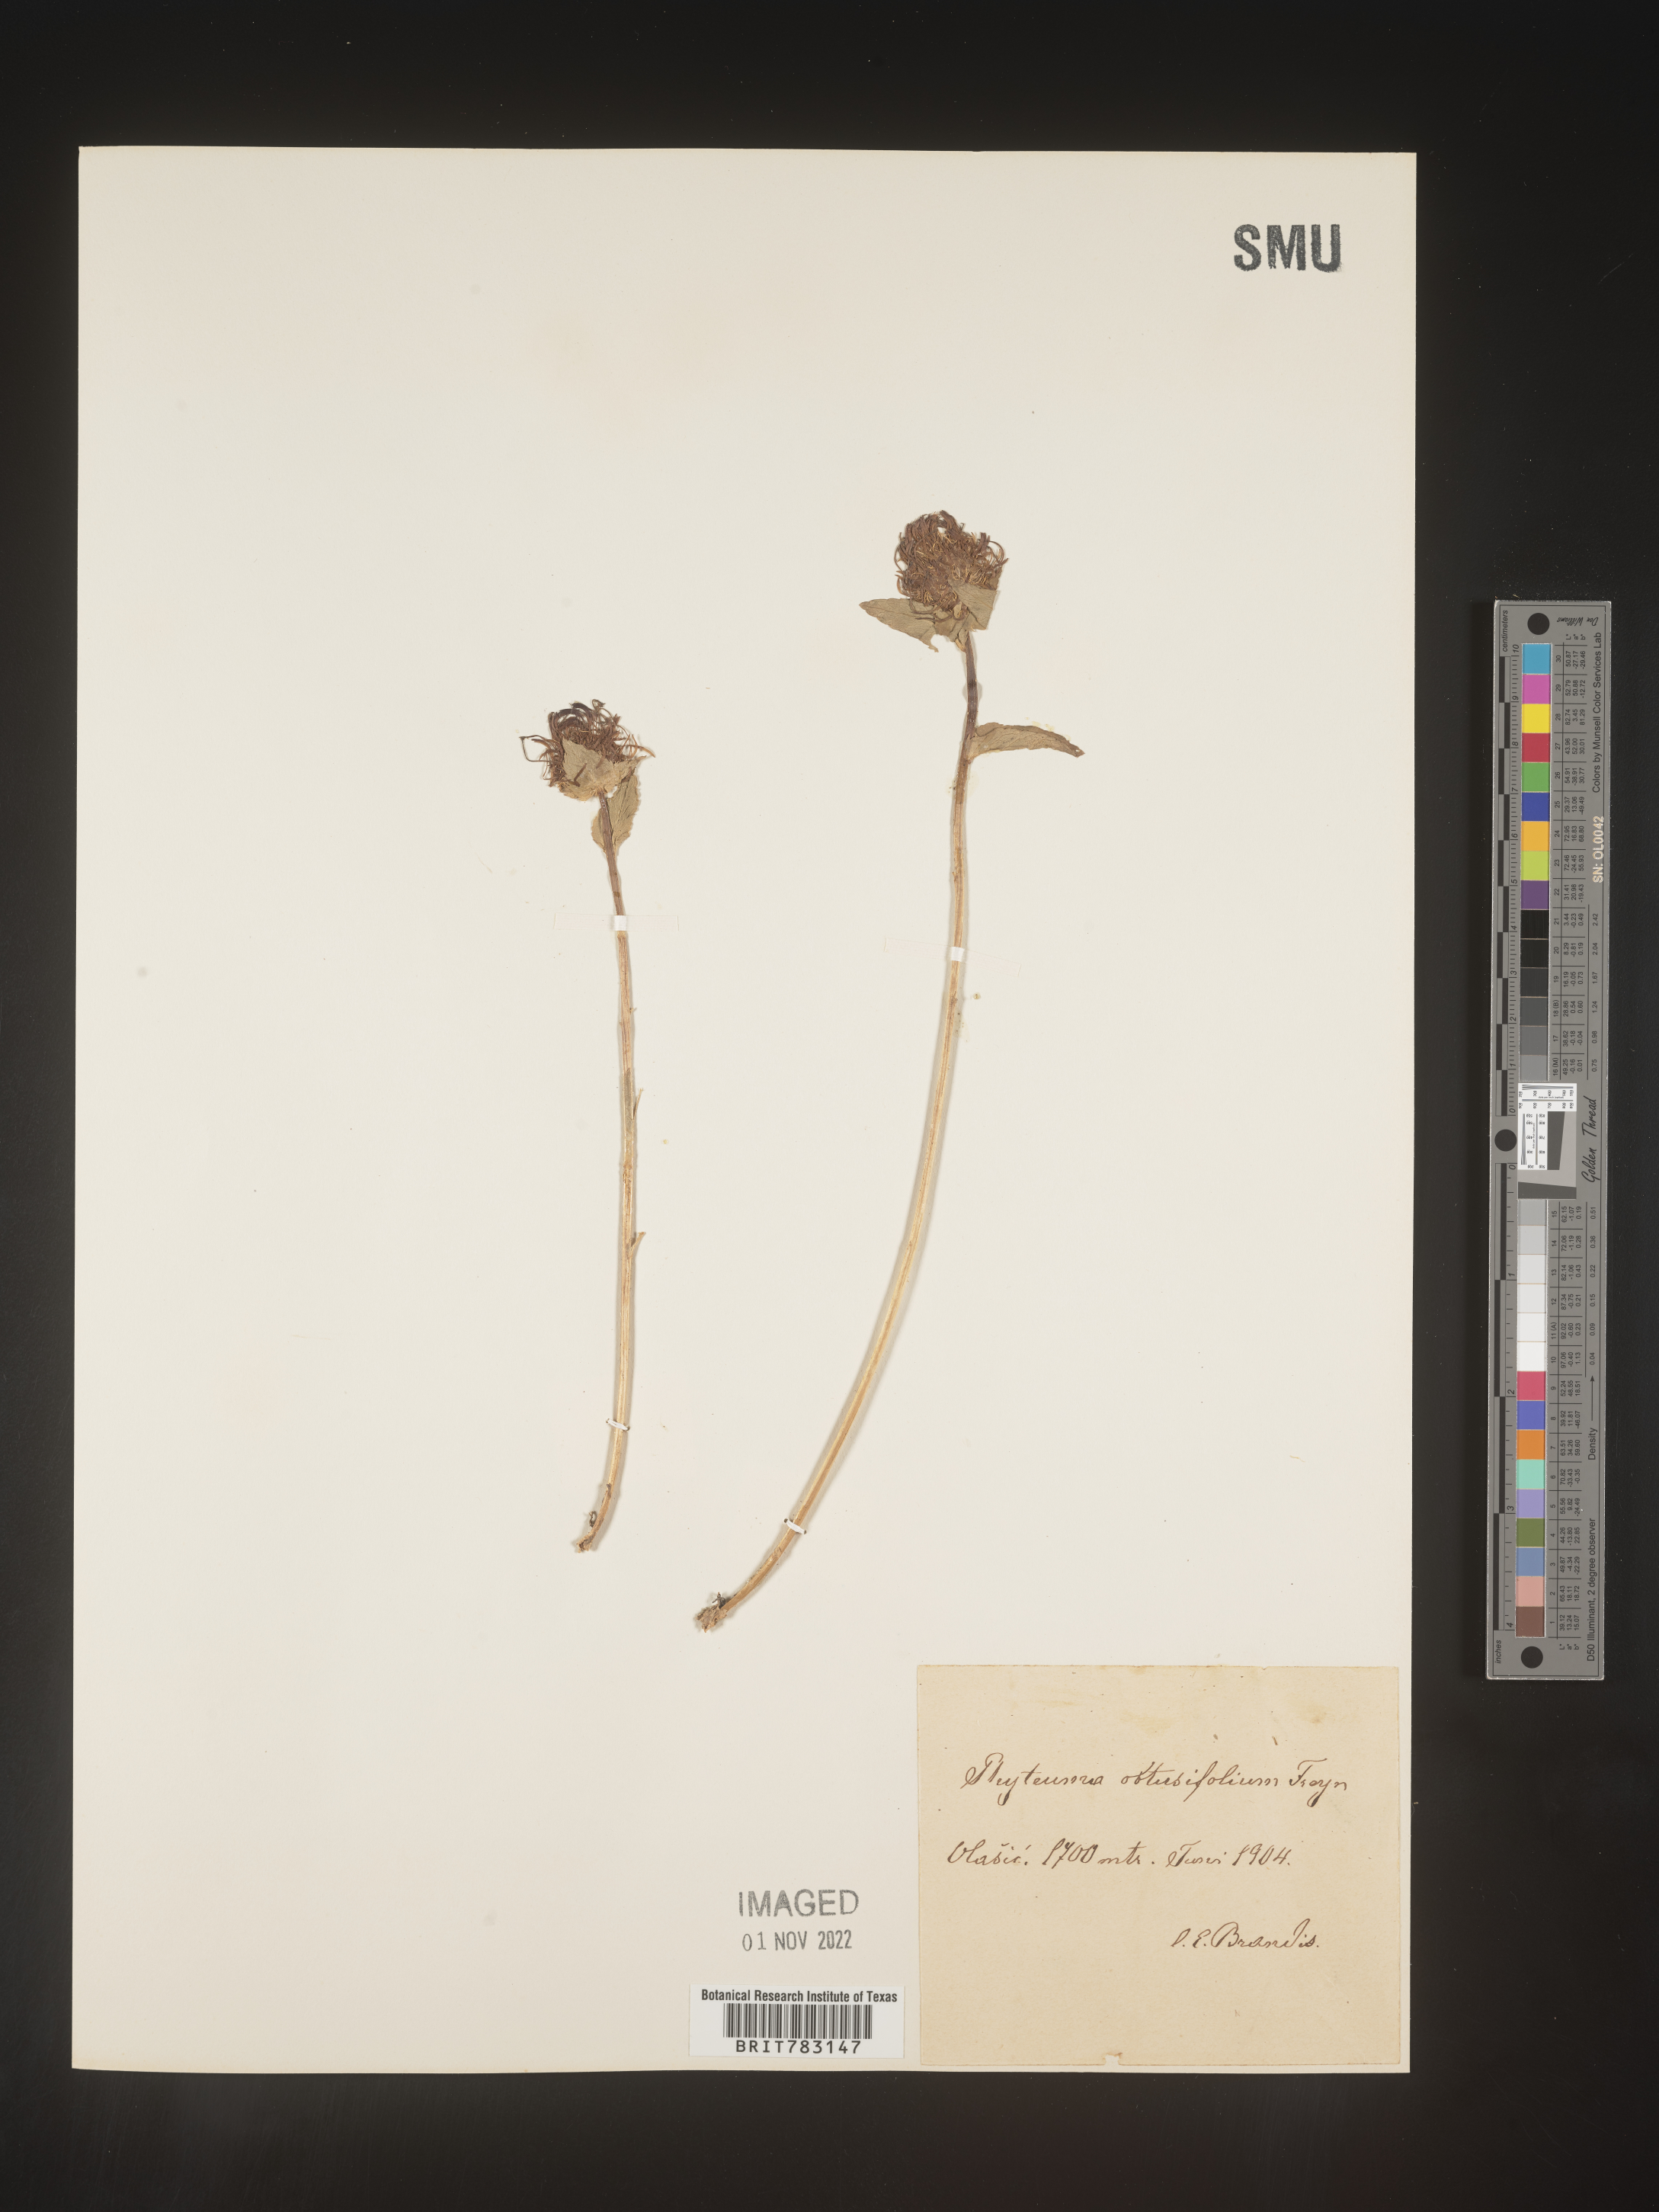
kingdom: Plantae
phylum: Tracheophyta
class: Magnoliopsida
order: Asterales
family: Campanulaceae
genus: Phyteuma
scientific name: Phyteuma
